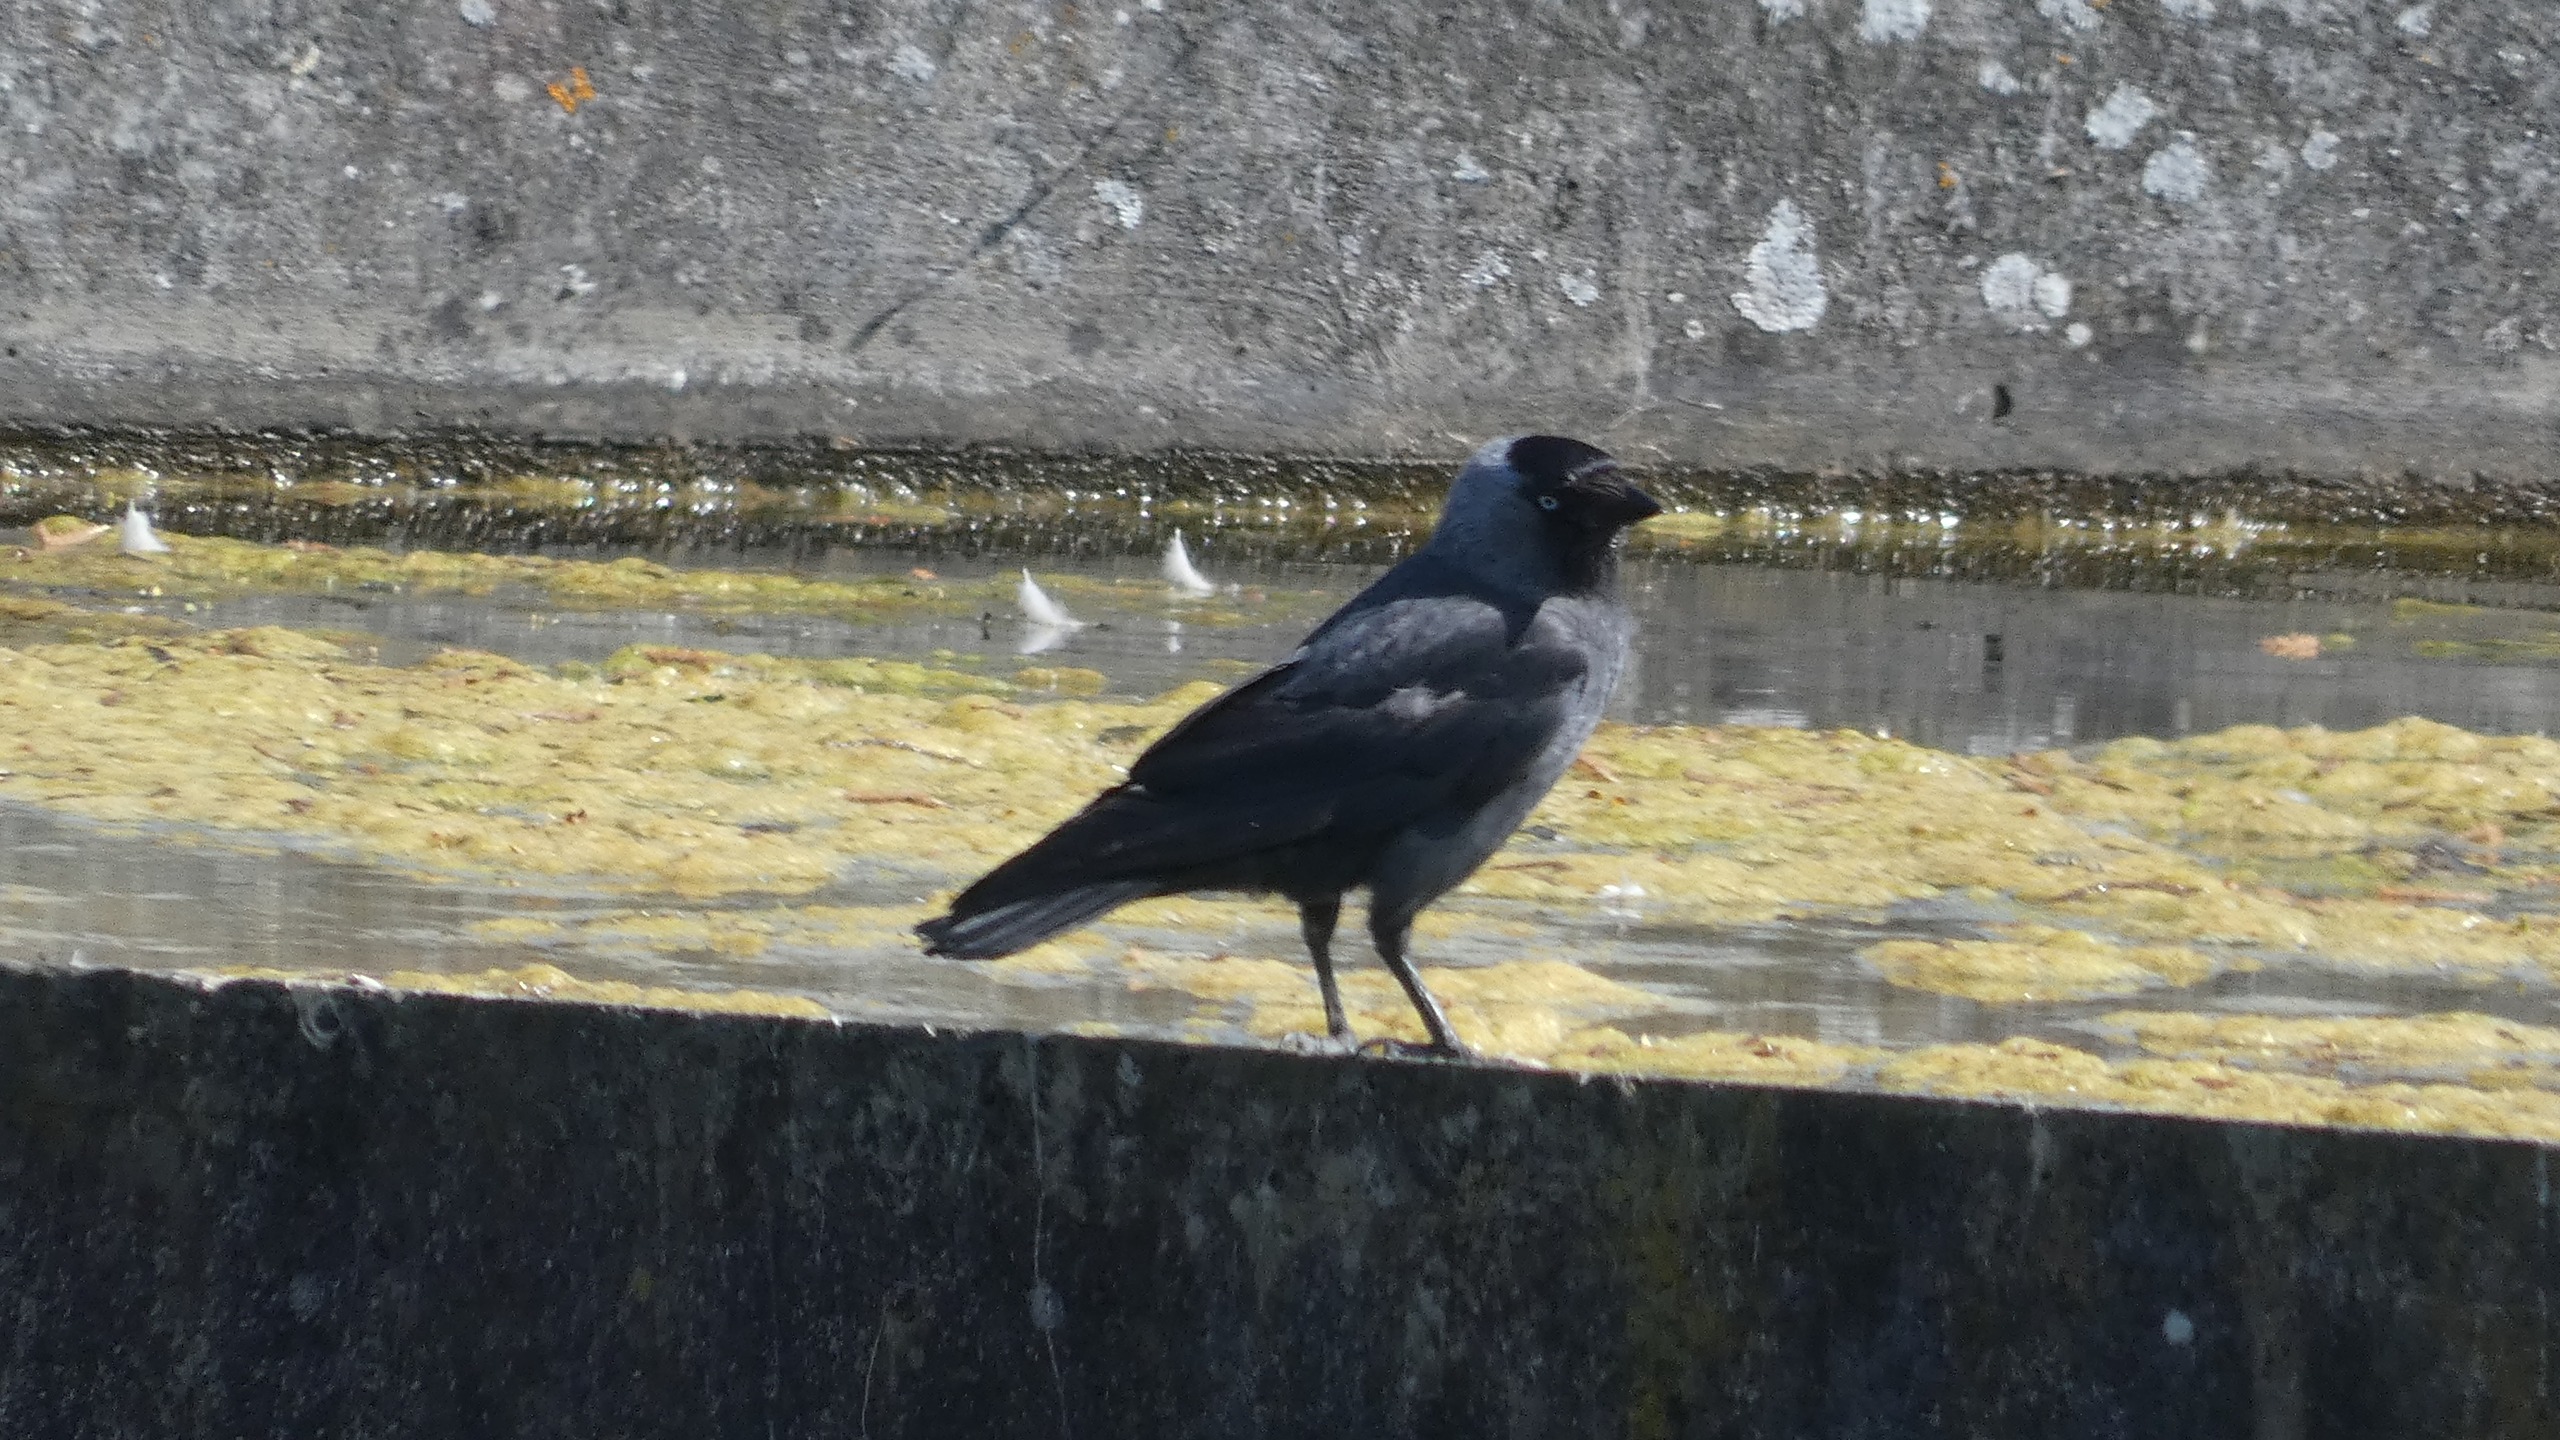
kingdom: Animalia
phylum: Chordata
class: Aves
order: Passeriformes
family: Corvidae
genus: Coloeus
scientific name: Coloeus monedula
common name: Allike
